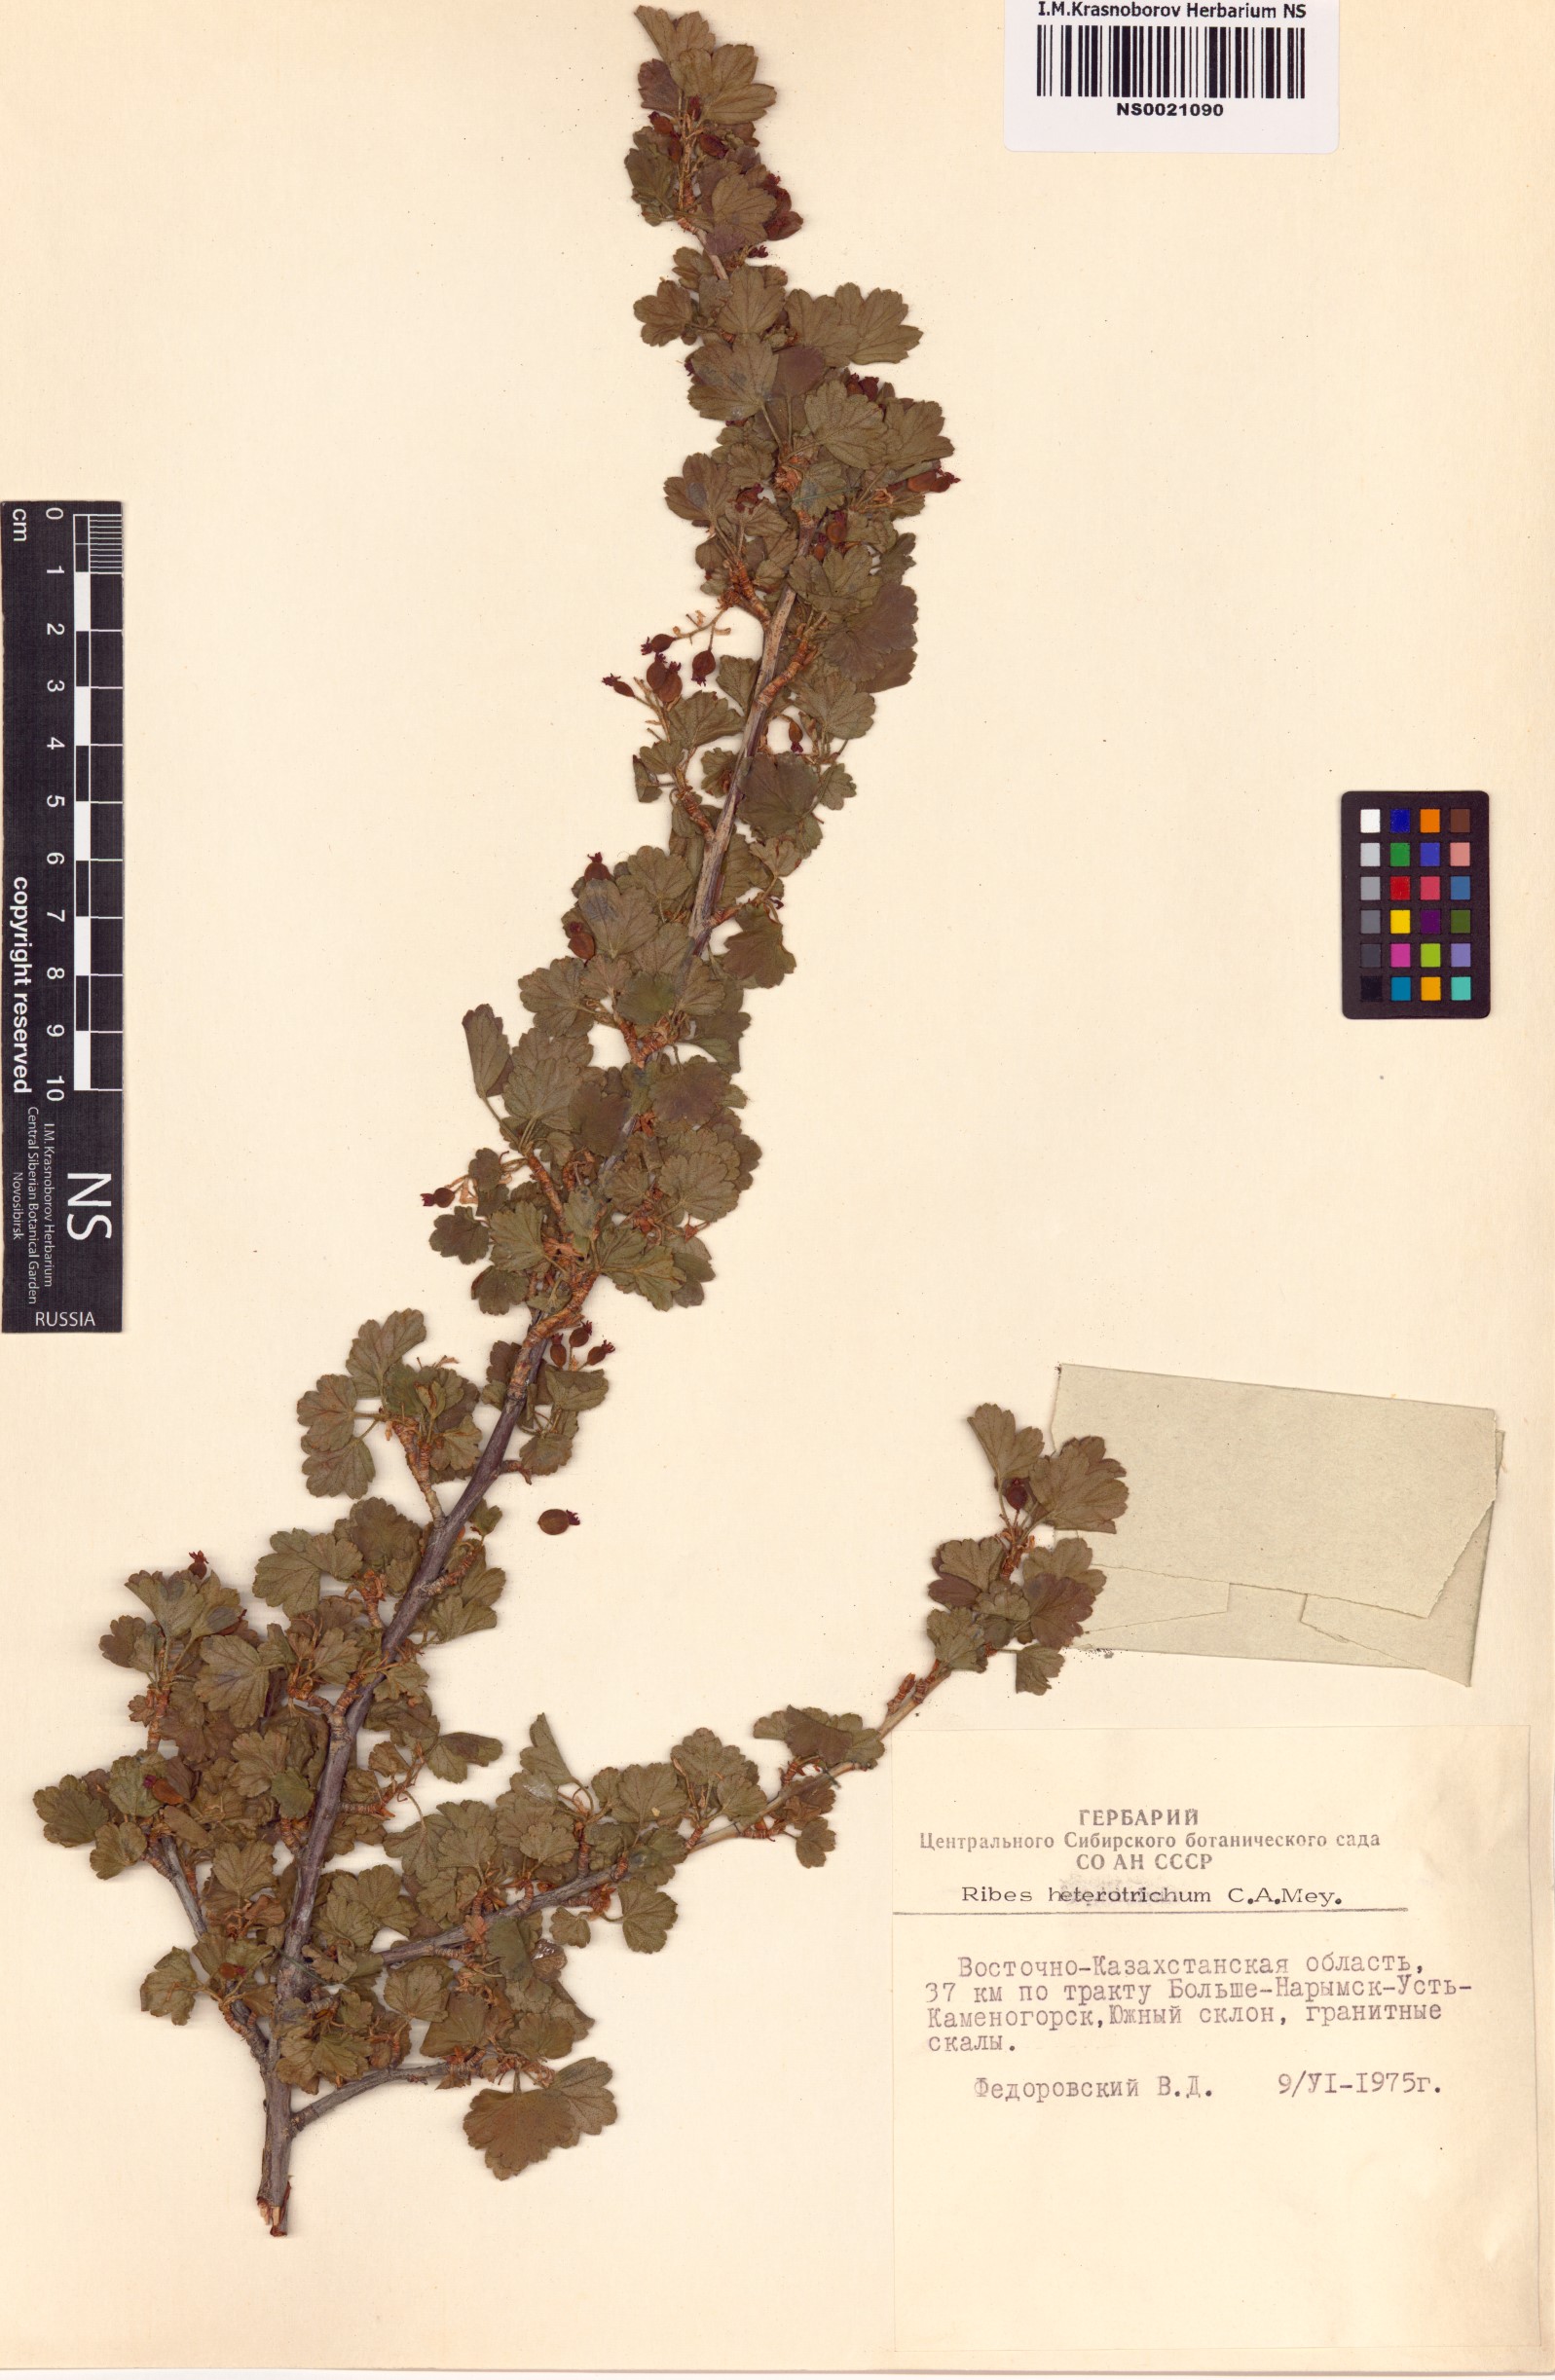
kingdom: Plantae
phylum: Tracheophyta
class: Magnoliopsida
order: Saxifragales
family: Grossulariaceae
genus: Ribes
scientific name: Ribes heterotrichum
